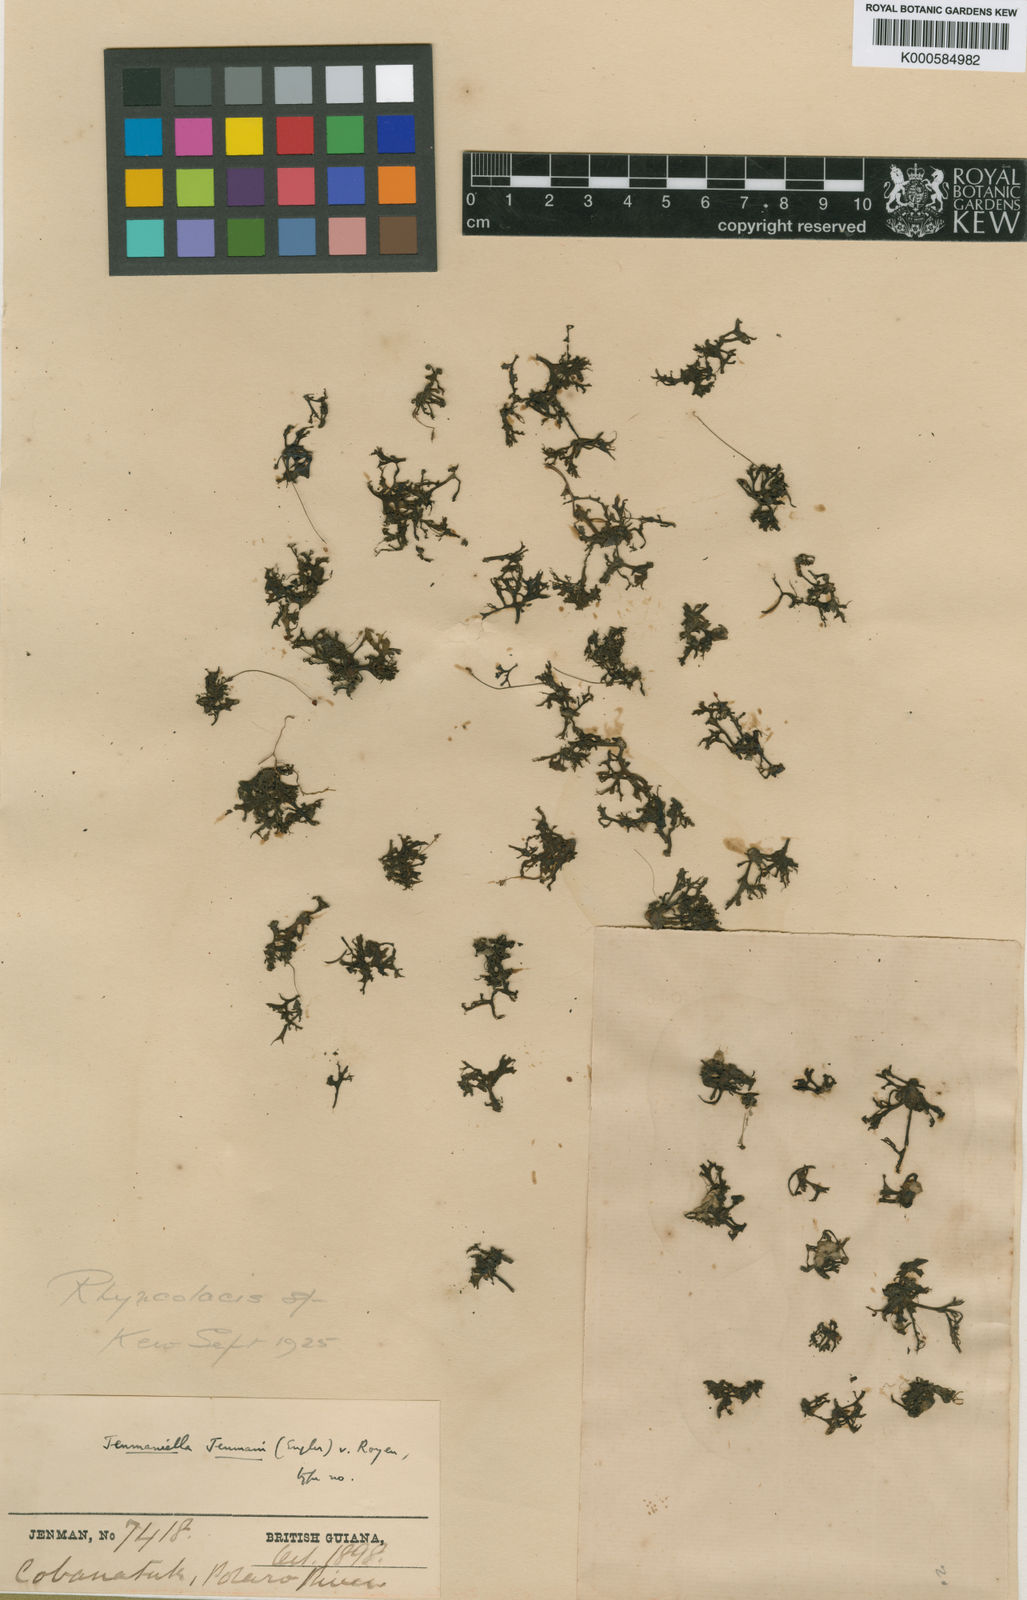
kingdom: Plantae
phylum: Tracheophyta
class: Magnoliopsida
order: Malpighiales
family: Podostemaceae
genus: Lophogyne
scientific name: Lophogyne tridactylitifolia
